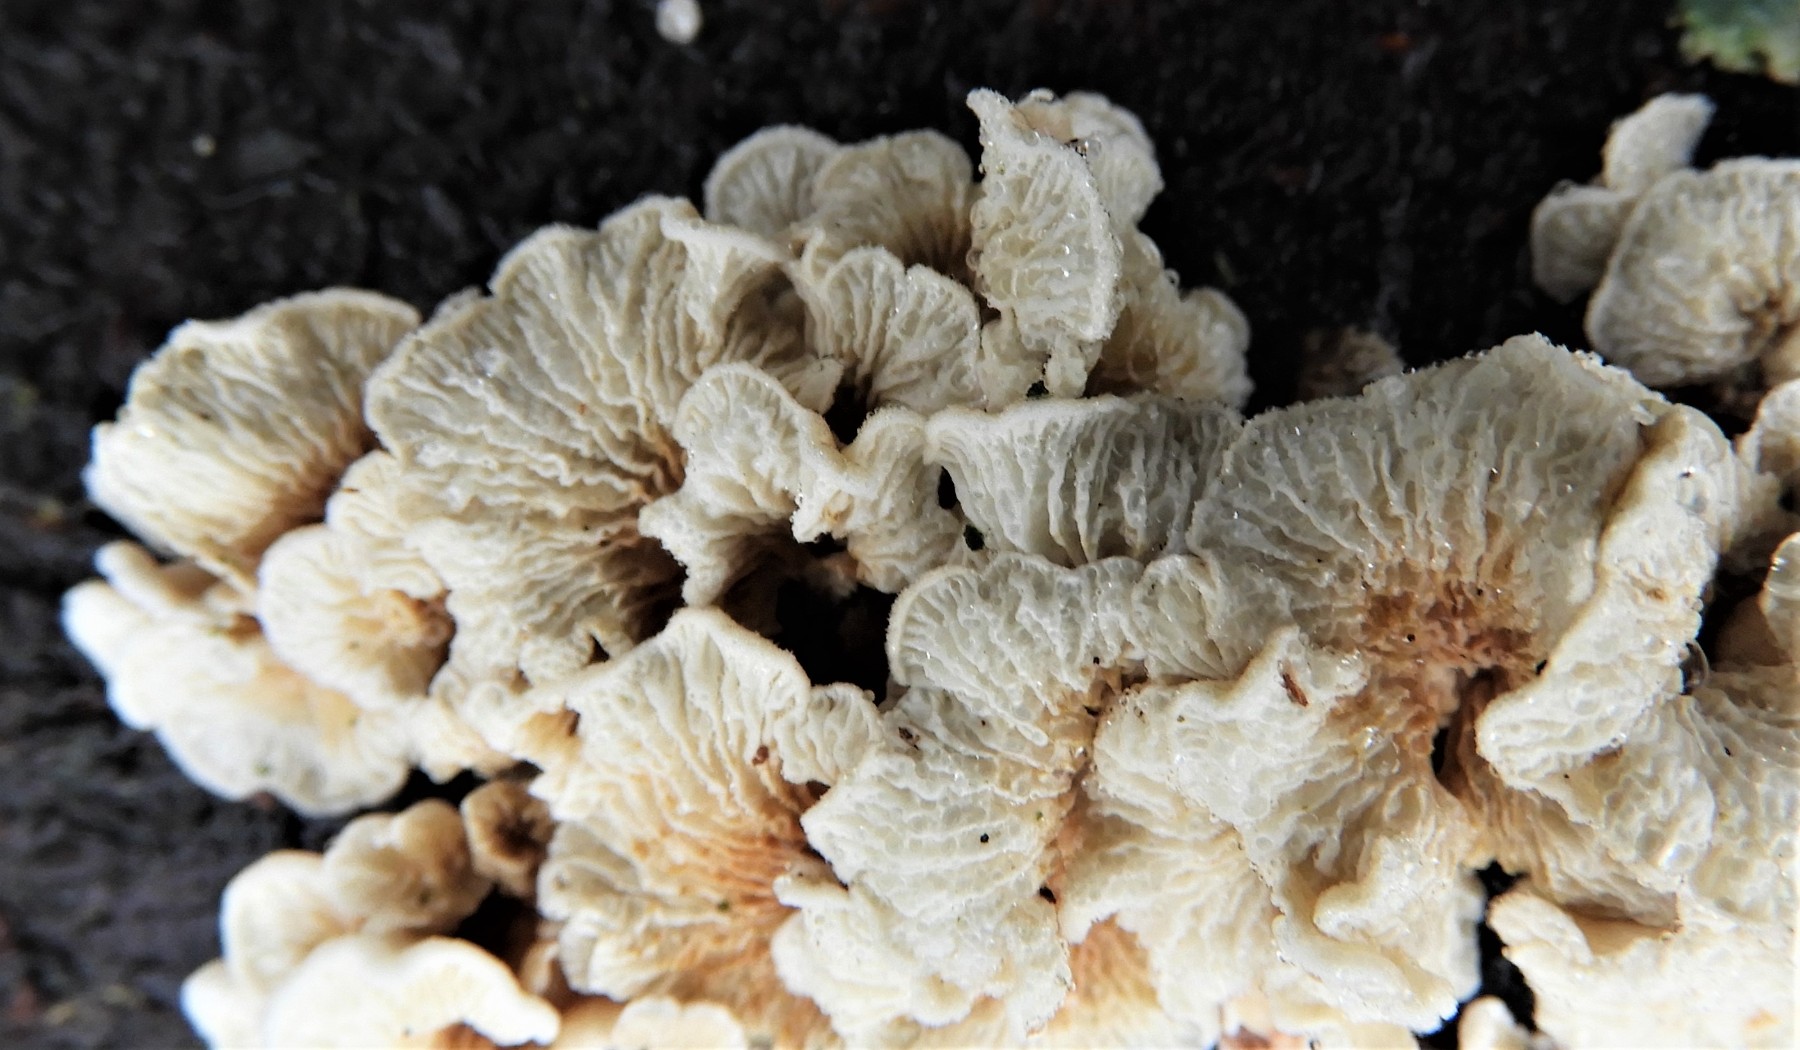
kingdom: Fungi
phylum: Basidiomycota
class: Agaricomycetes
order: Amylocorticiales
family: Amylocorticiaceae
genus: Plicaturopsis
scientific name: Plicaturopsis crispa
